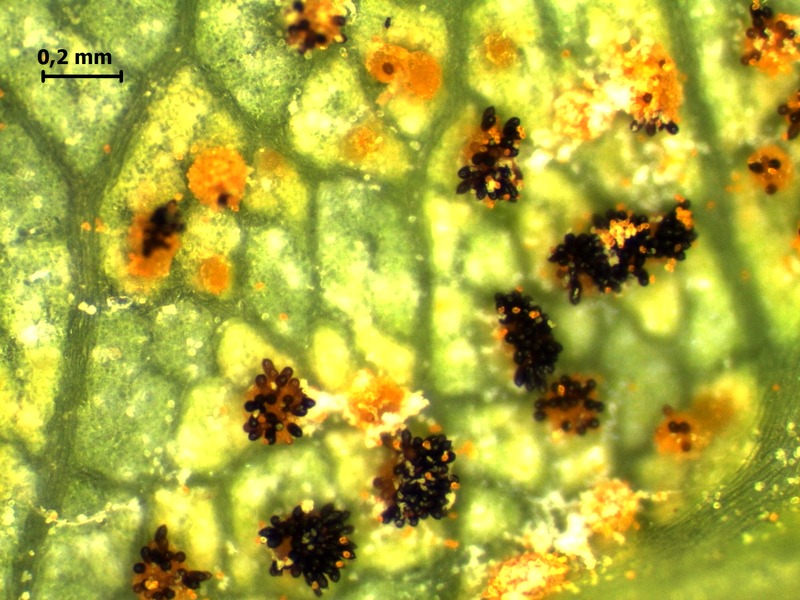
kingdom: Fungi
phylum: Basidiomycota
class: Pucciniomycetes
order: Pucciniales
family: Phragmidiaceae
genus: Phragmidium
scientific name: Phragmidium mucronatum
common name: Rose rust
